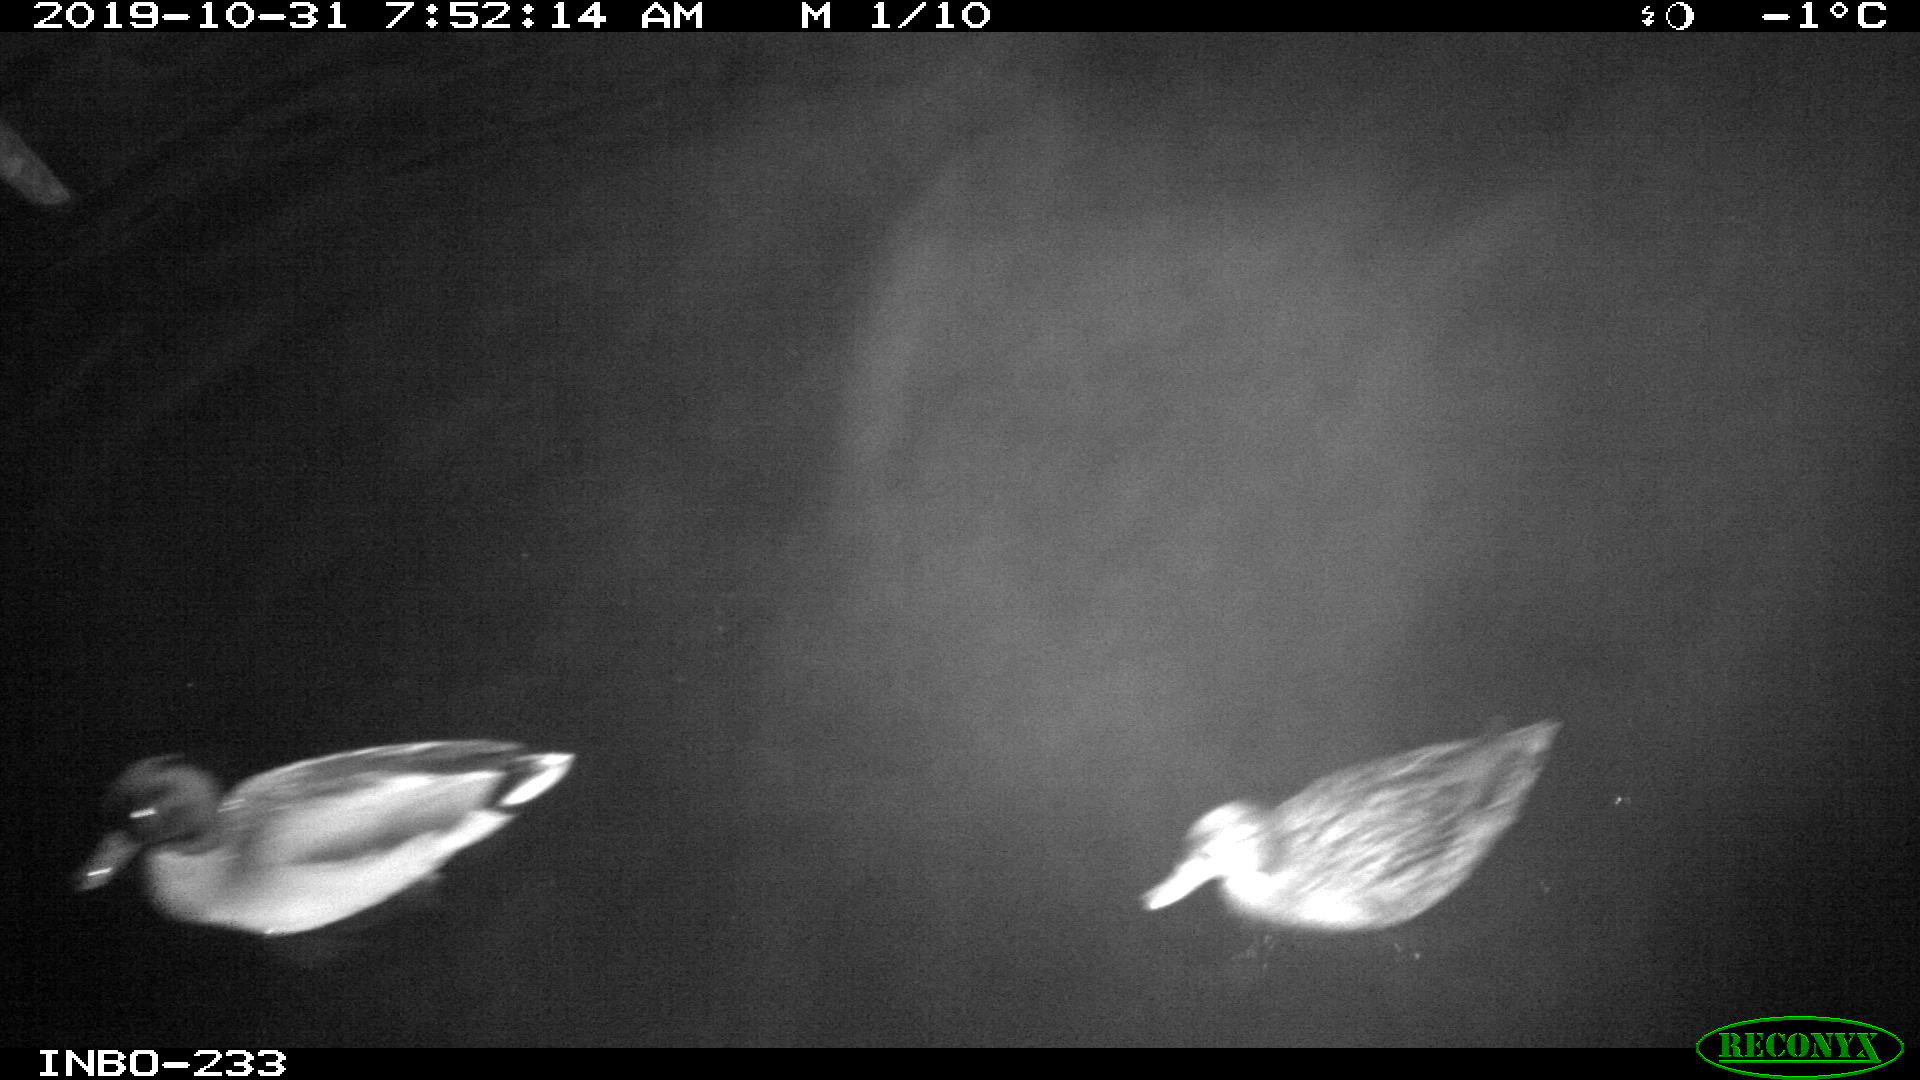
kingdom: Animalia
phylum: Chordata
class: Aves
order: Anseriformes
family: Anatidae
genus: Anas
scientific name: Anas platyrhynchos
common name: Mallard
